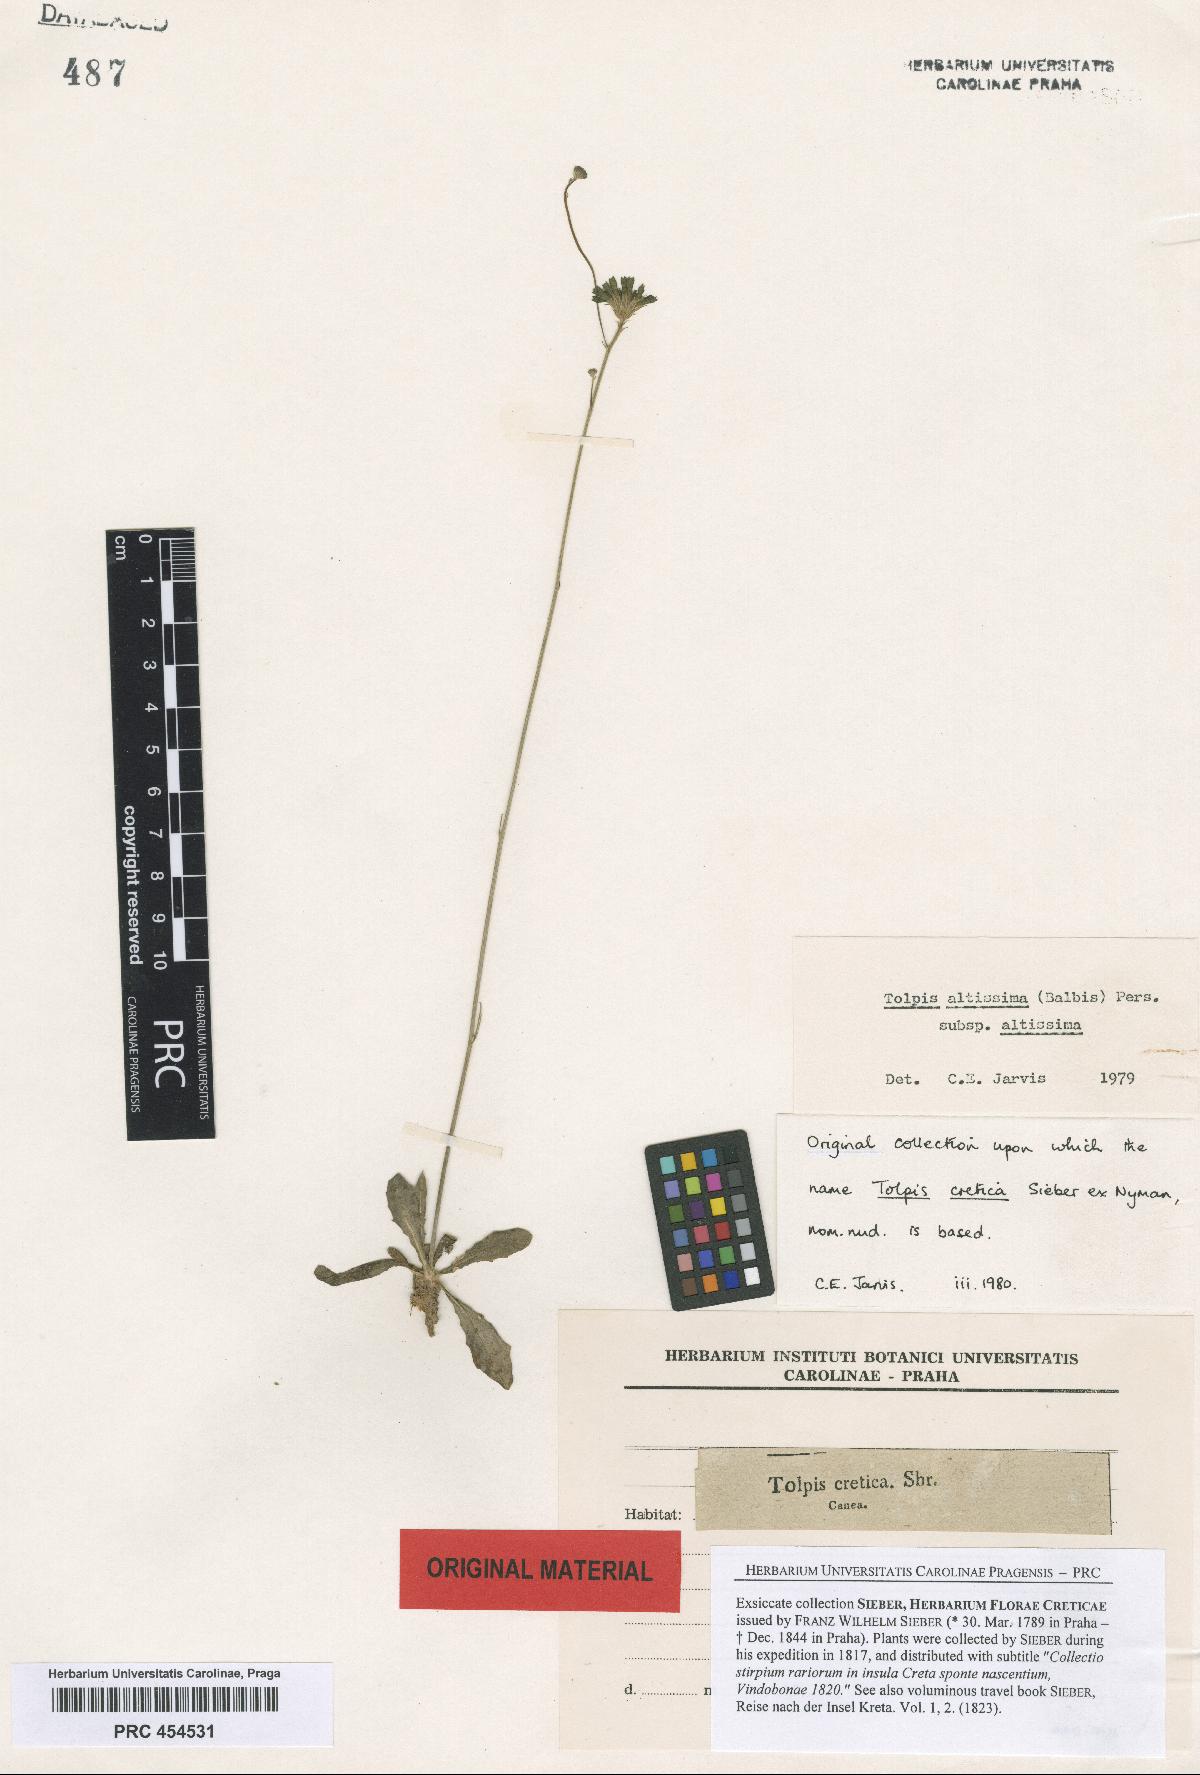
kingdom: Plantae
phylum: Tracheophyta
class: Magnoliopsida
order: Asterales
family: Asteraceae
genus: Tolpis
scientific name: Tolpis virgata
